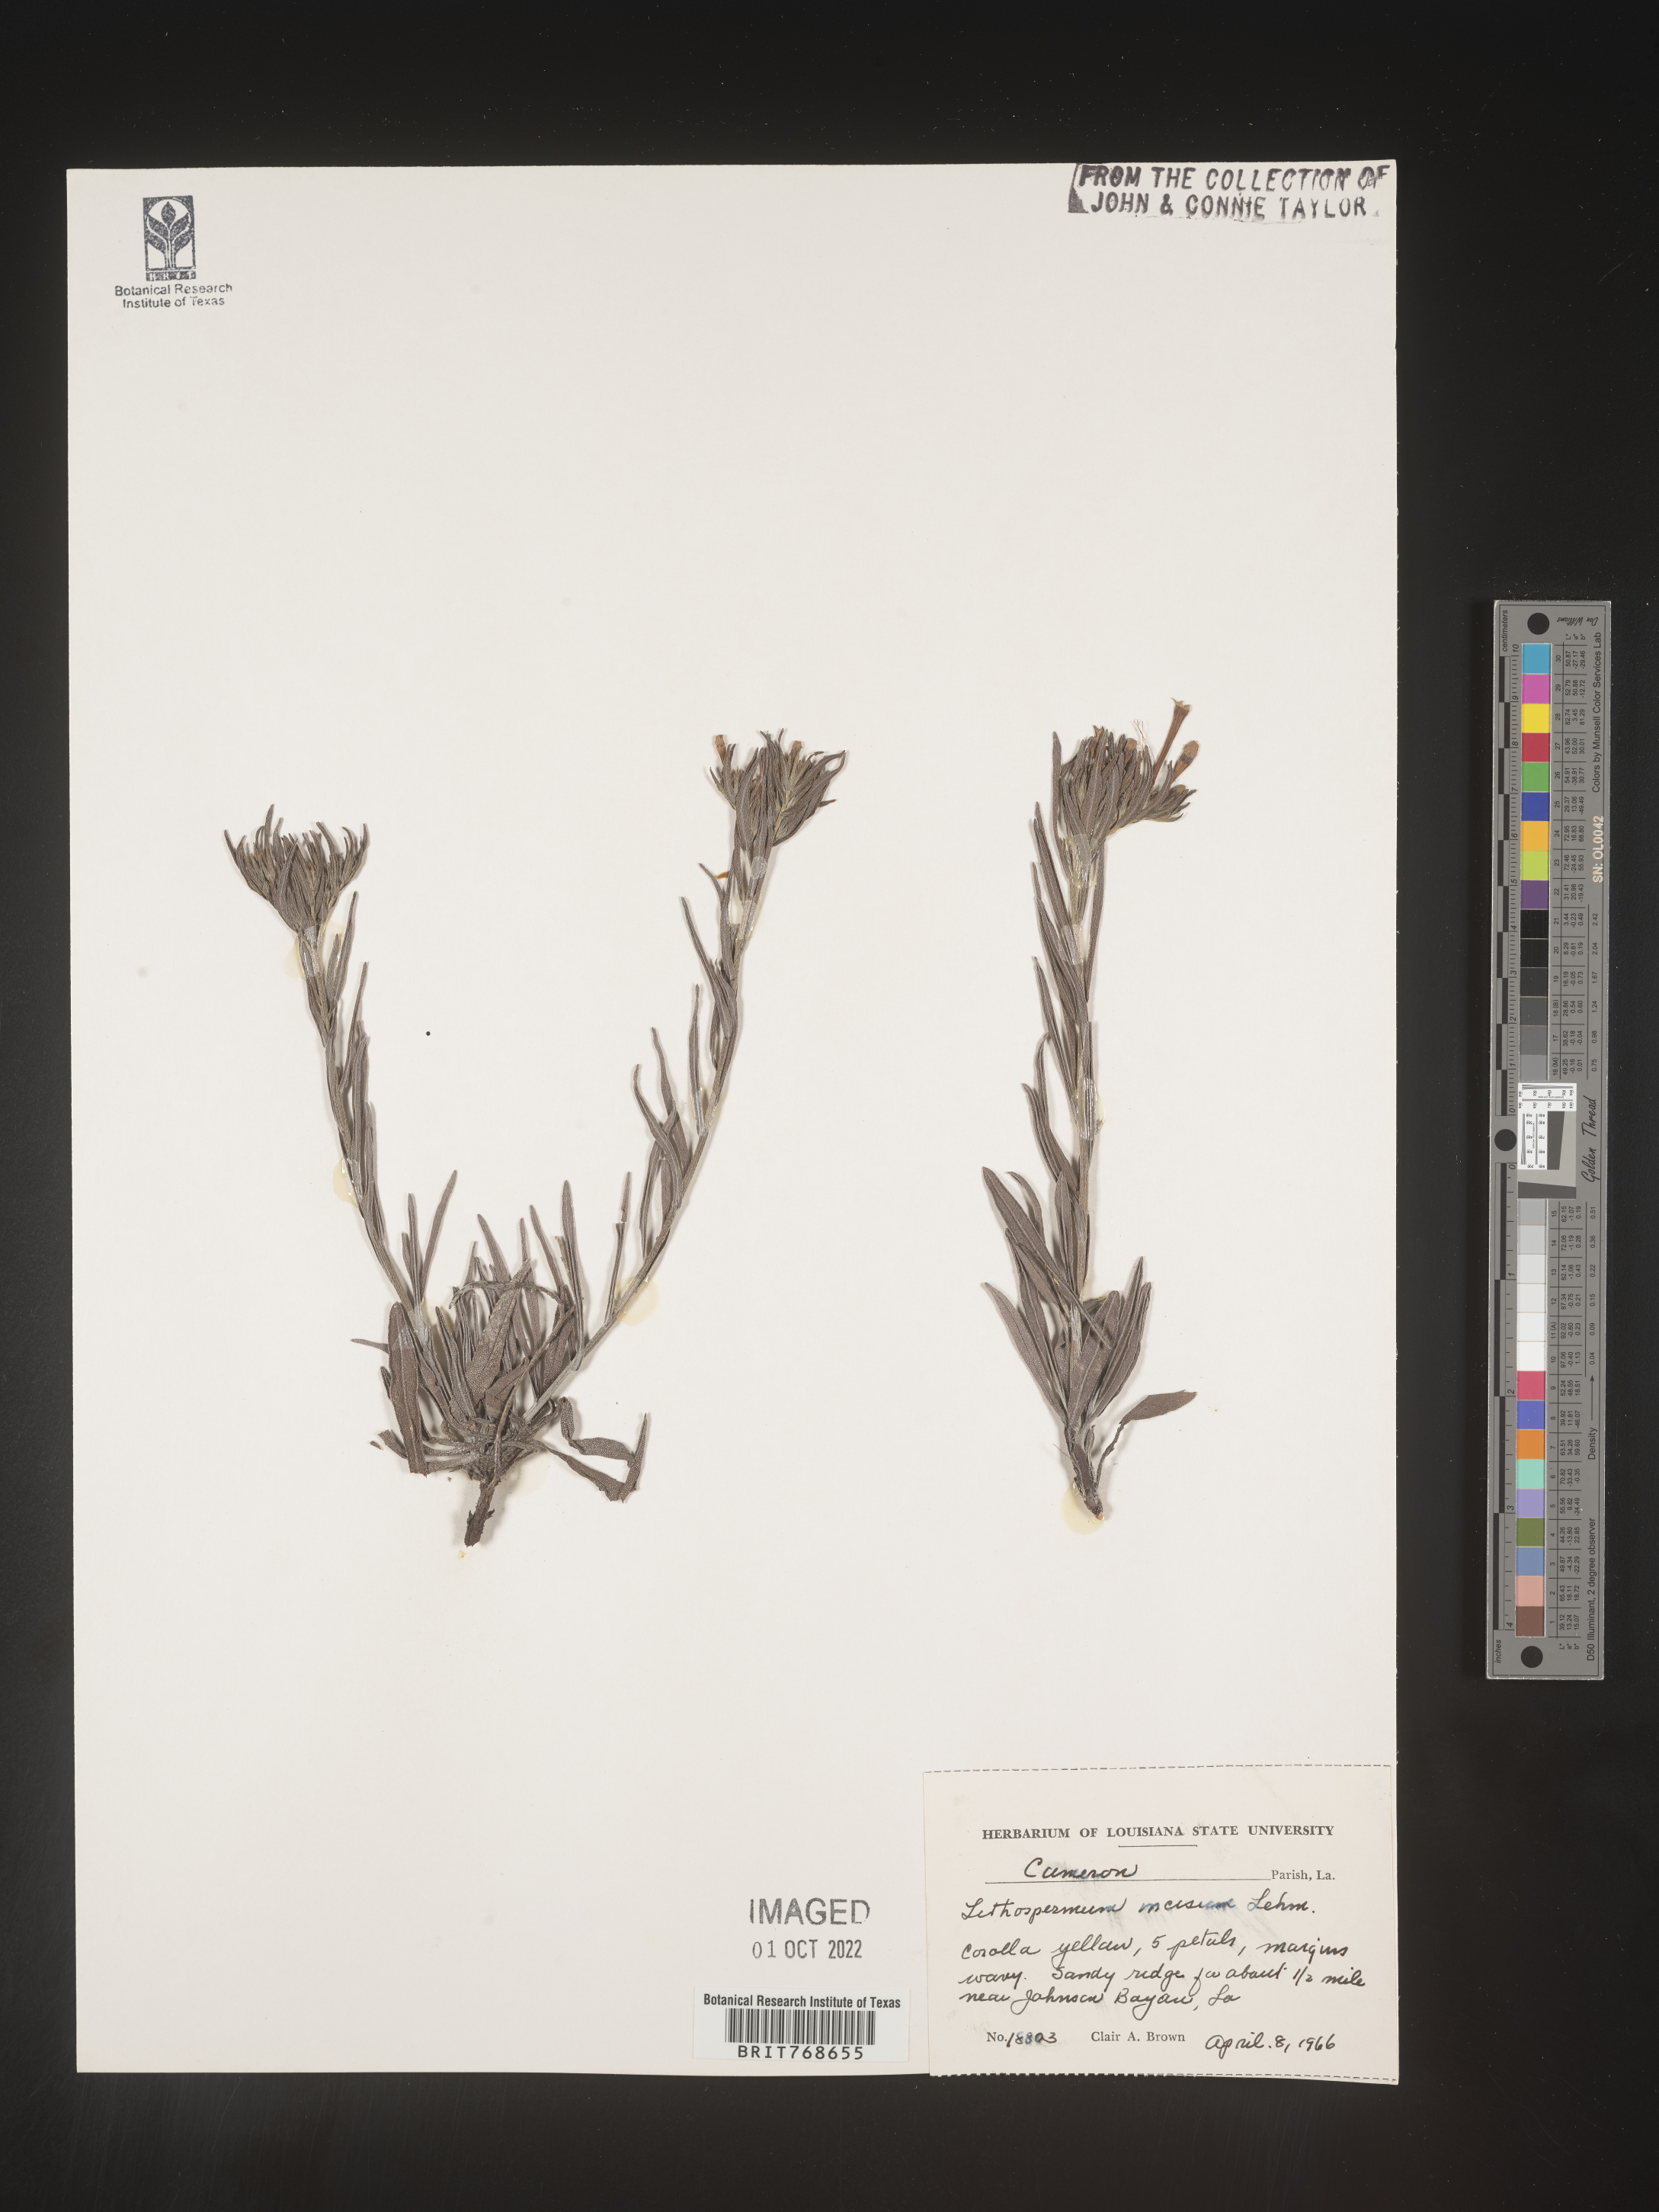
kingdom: Plantae
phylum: Tracheophyta
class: Magnoliopsida
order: Boraginales
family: Boraginaceae
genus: Lithospermum
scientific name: Lithospermum incisum
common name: Fringed gromwell
